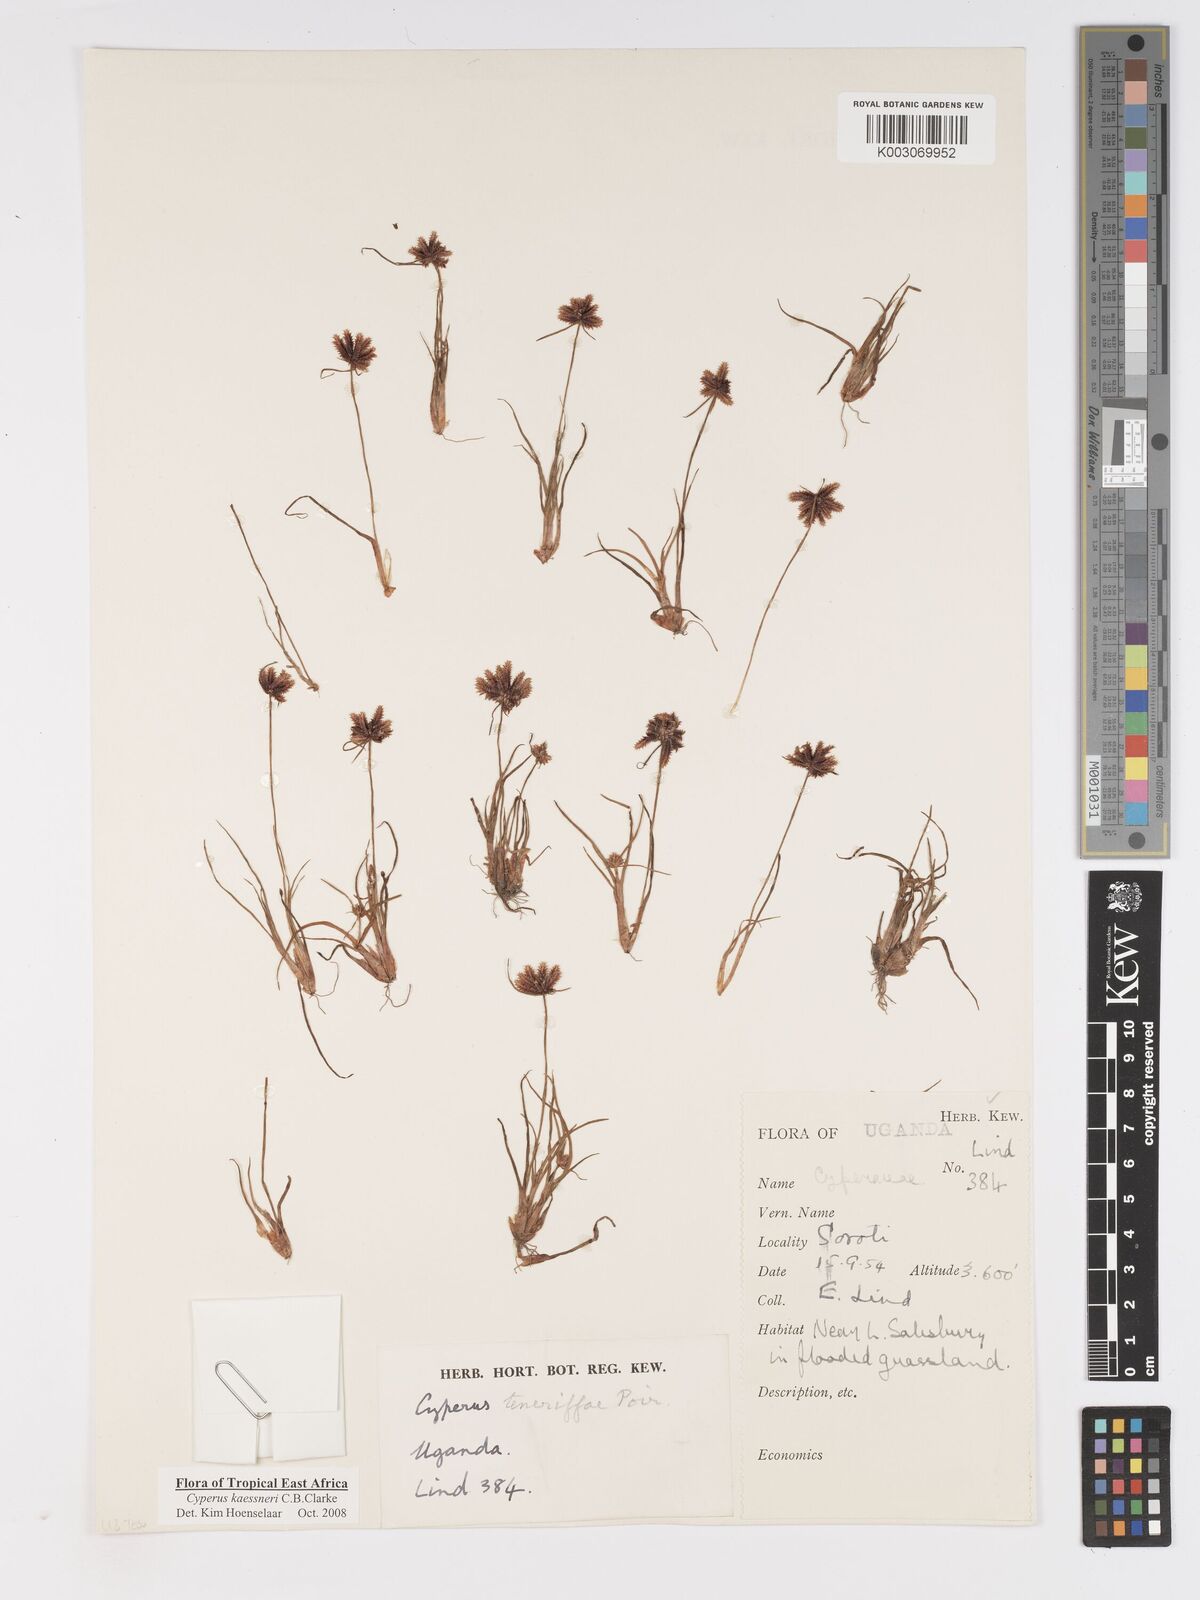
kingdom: Plantae
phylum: Tracheophyta
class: Liliopsida
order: Poales
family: Cyperaceae
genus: Cyperus
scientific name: Cyperus kaessneri
